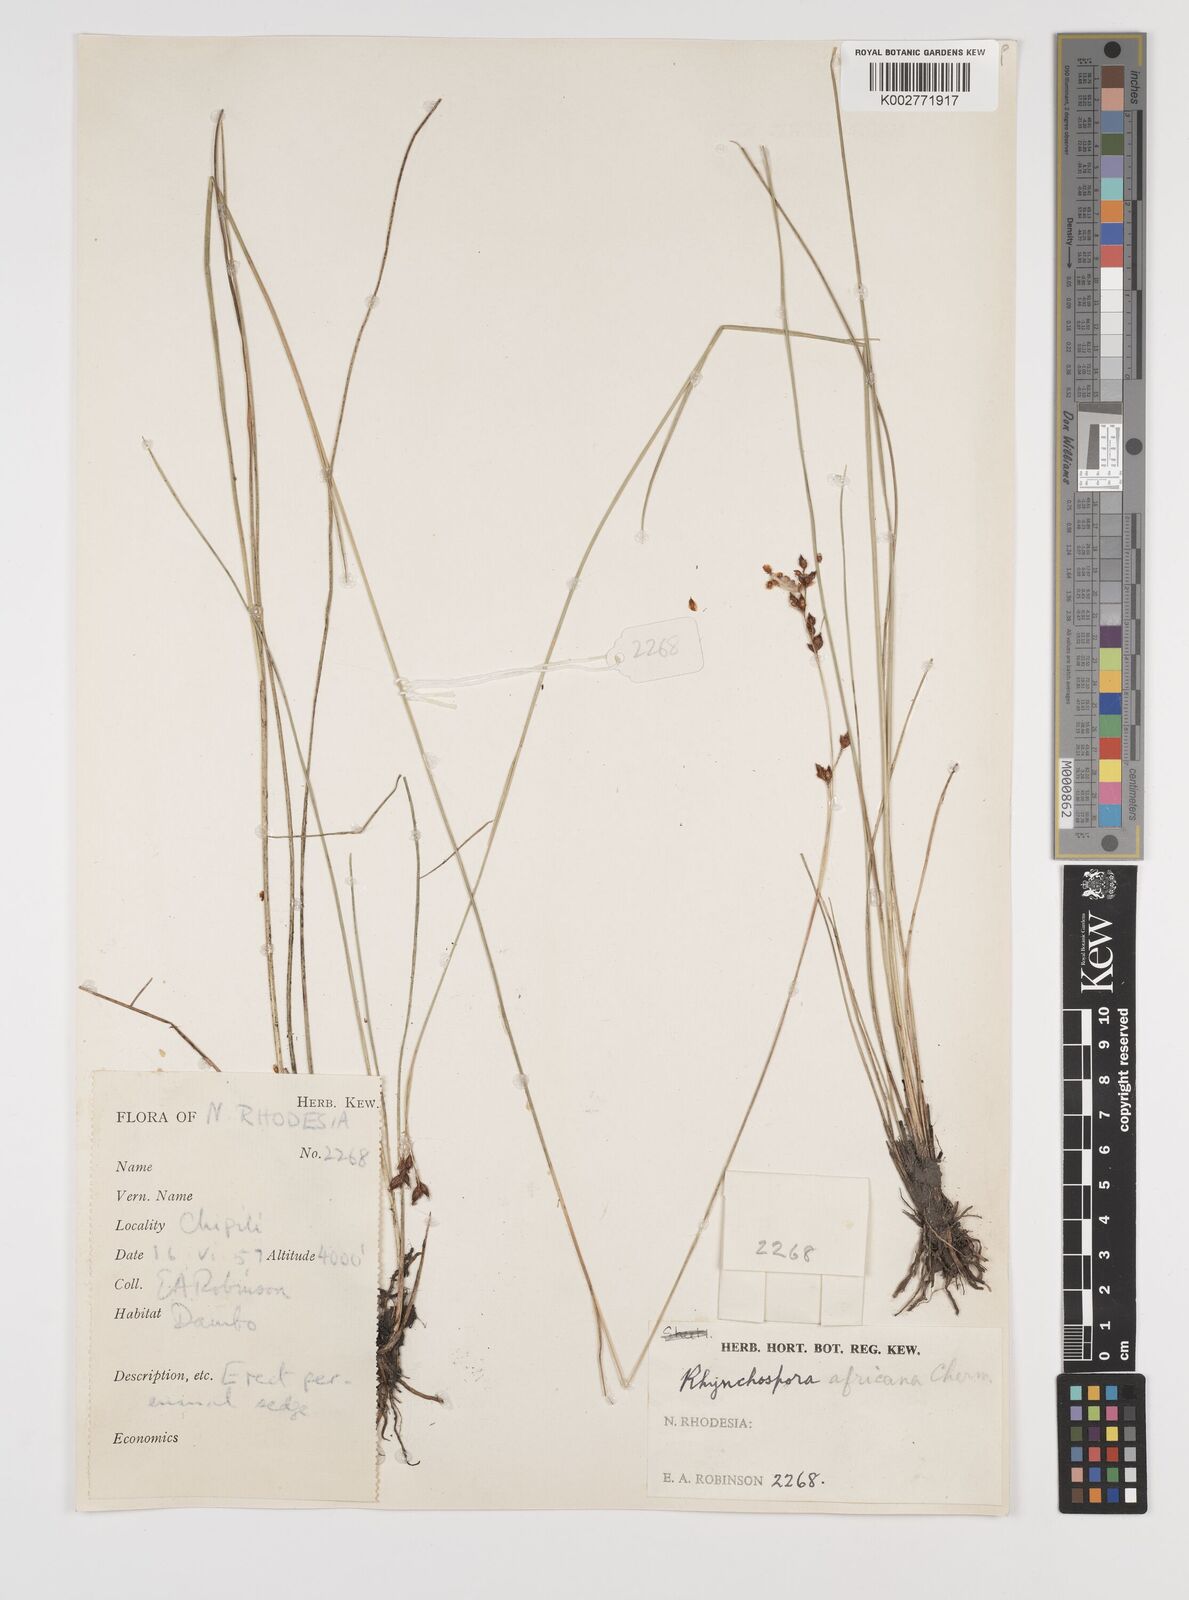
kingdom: Plantae
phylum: Tracheophyta
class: Liliopsida
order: Poales
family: Cyperaceae
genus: Rhynchospora
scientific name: Rhynchospora angolensis
